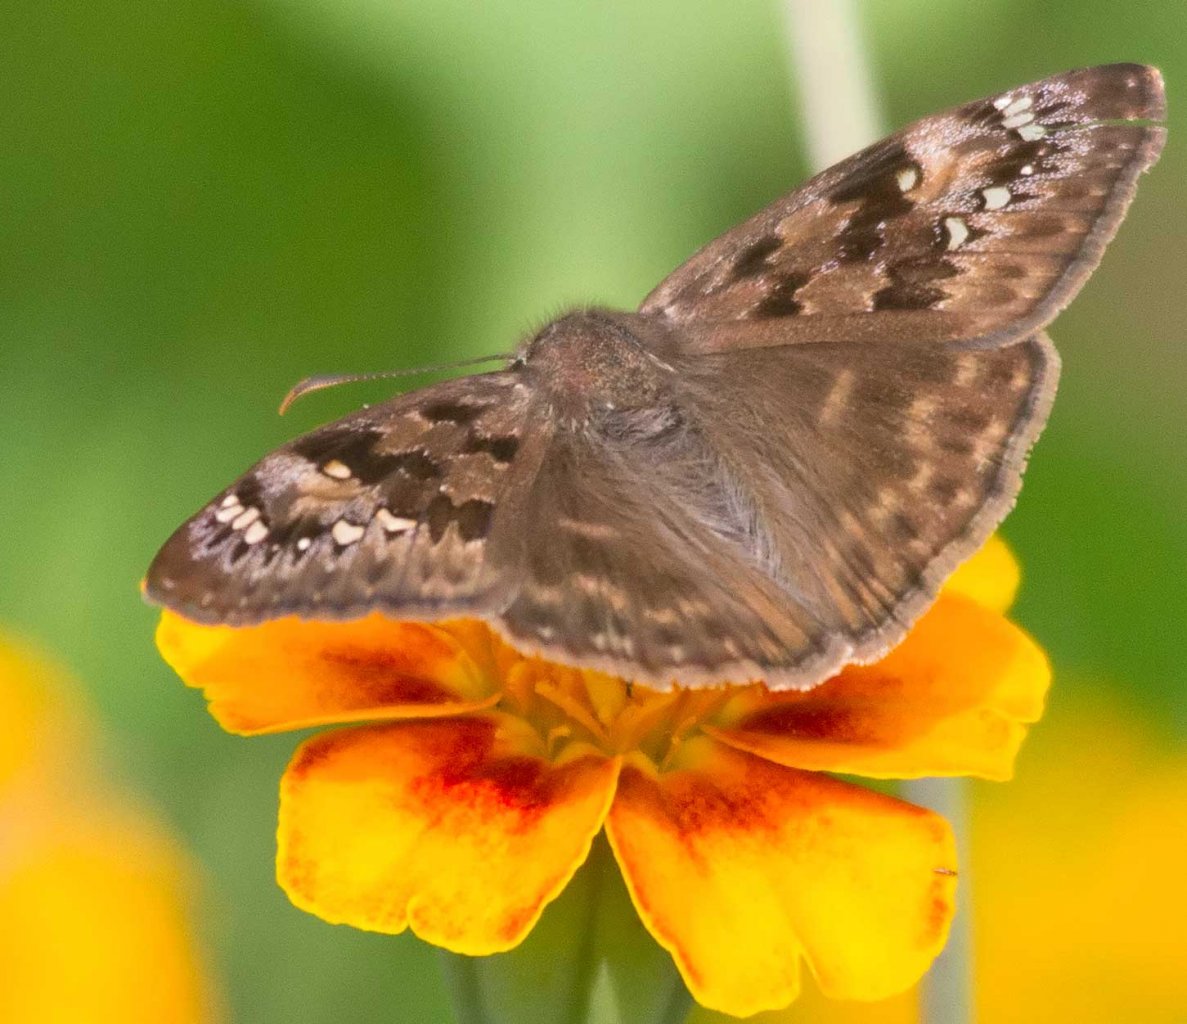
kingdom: Animalia
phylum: Arthropoda
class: Insecta
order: Lepidoptera
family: Hesperiidae
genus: Gesta
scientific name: Gesta
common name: Horace's Duskywing
